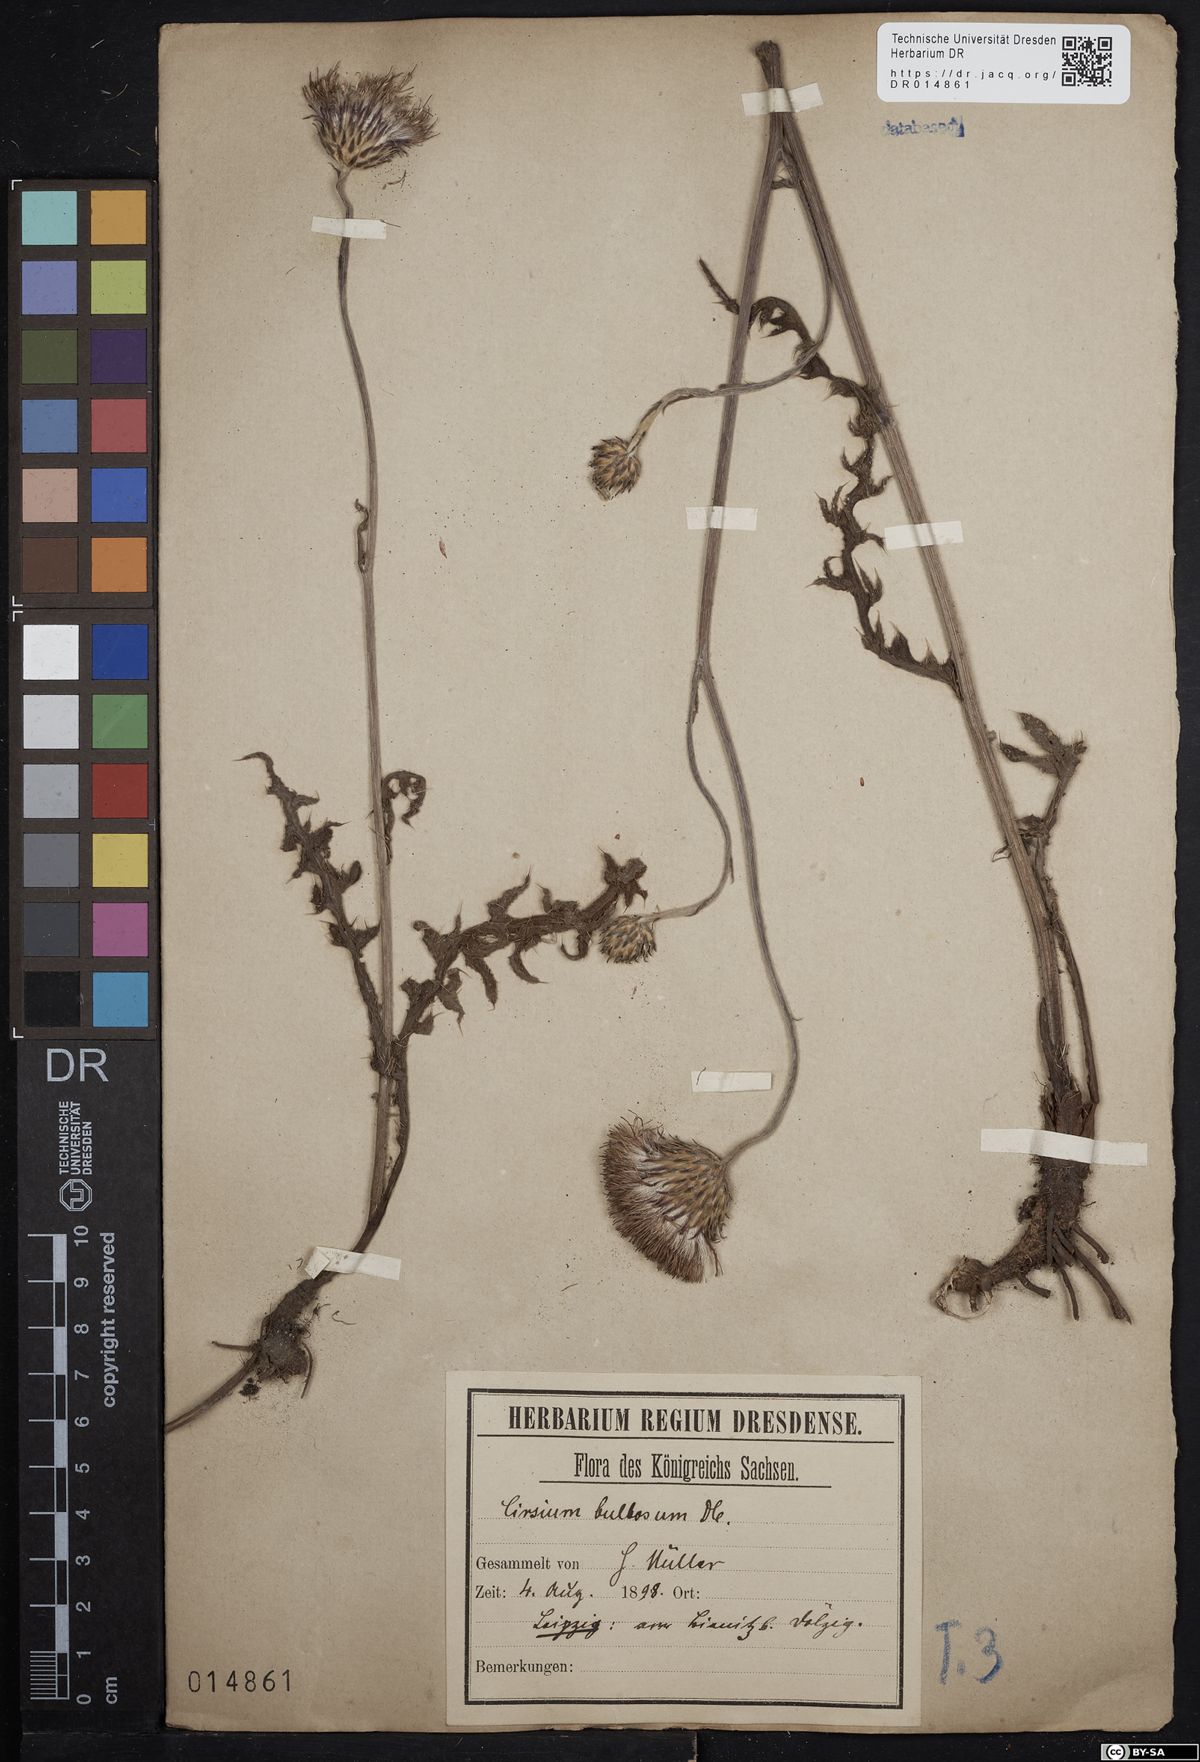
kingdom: Plantae
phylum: Tracheophyta
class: Magnoliopsida
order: Asterales
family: Asteraceae
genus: Cirsium
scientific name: Cirsium tuberosum
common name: Tuberous thistle
